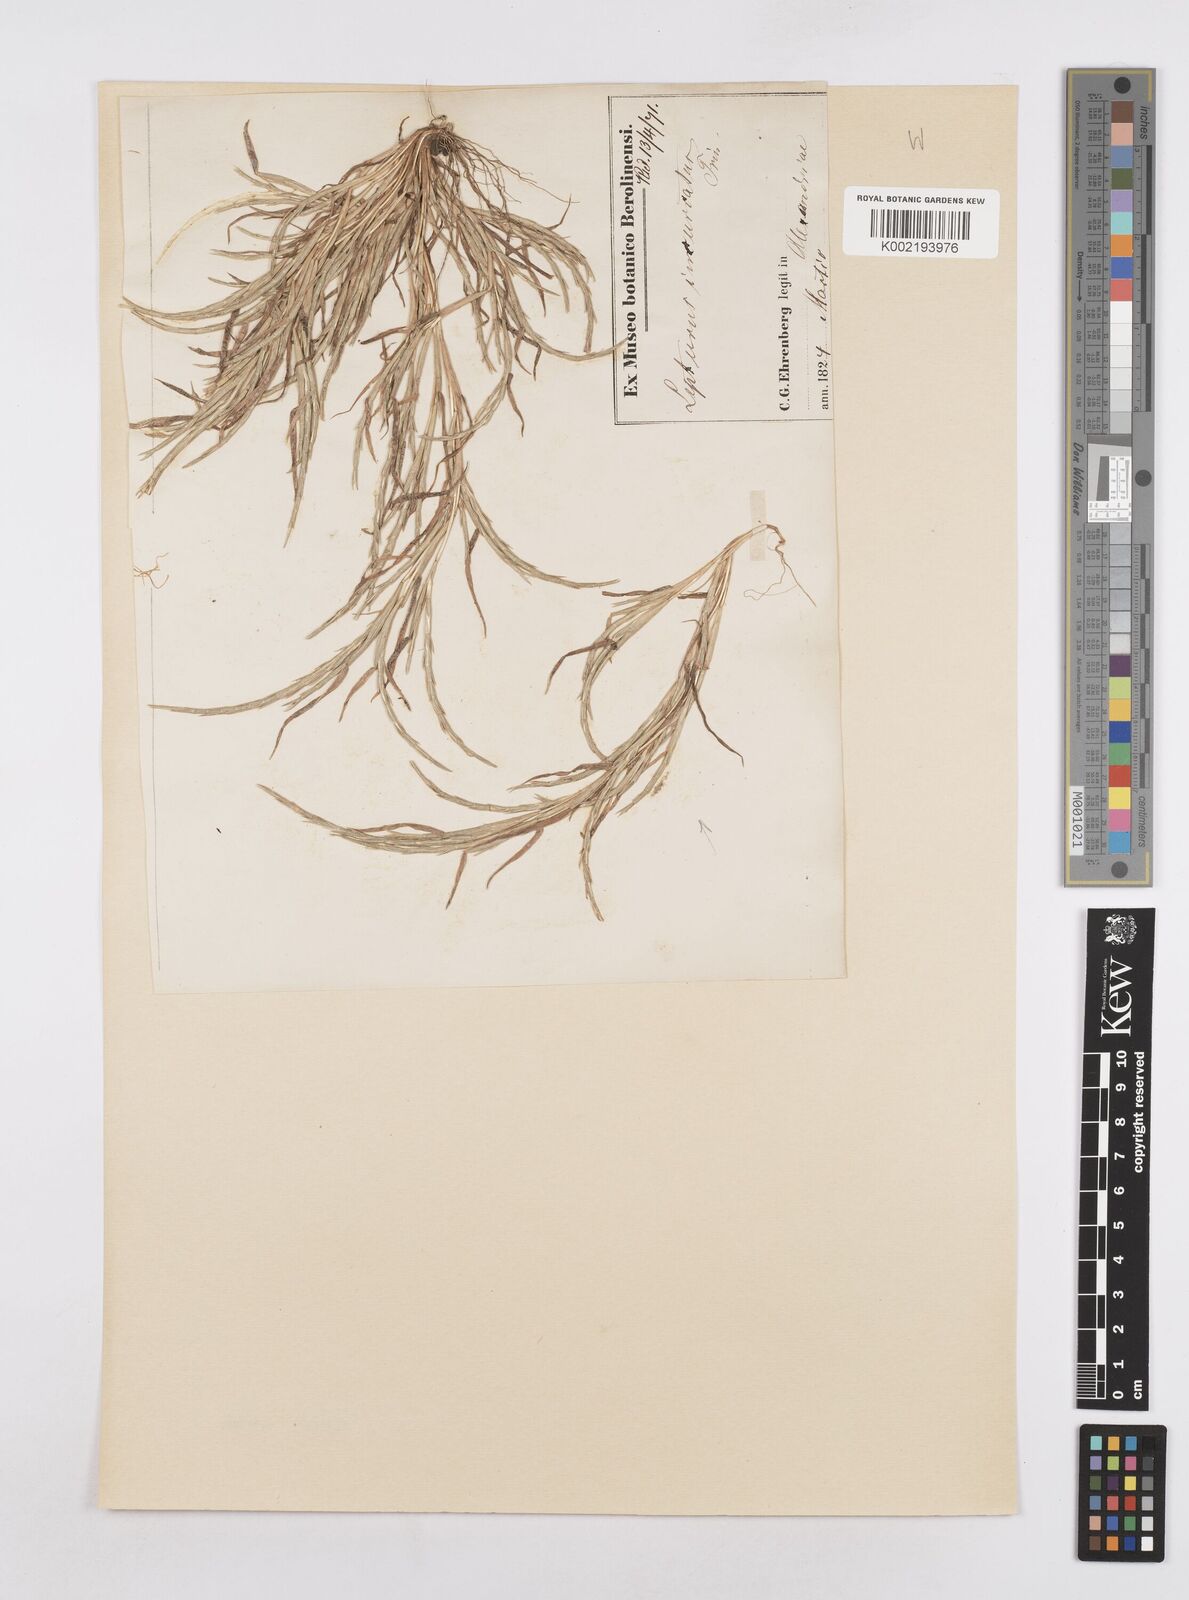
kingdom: Plantae
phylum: Tracheophyta
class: Liliopsida
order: Poales
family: Poaceae
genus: Parapholis
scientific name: Parapholis incurva
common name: Curved sicklegrass
